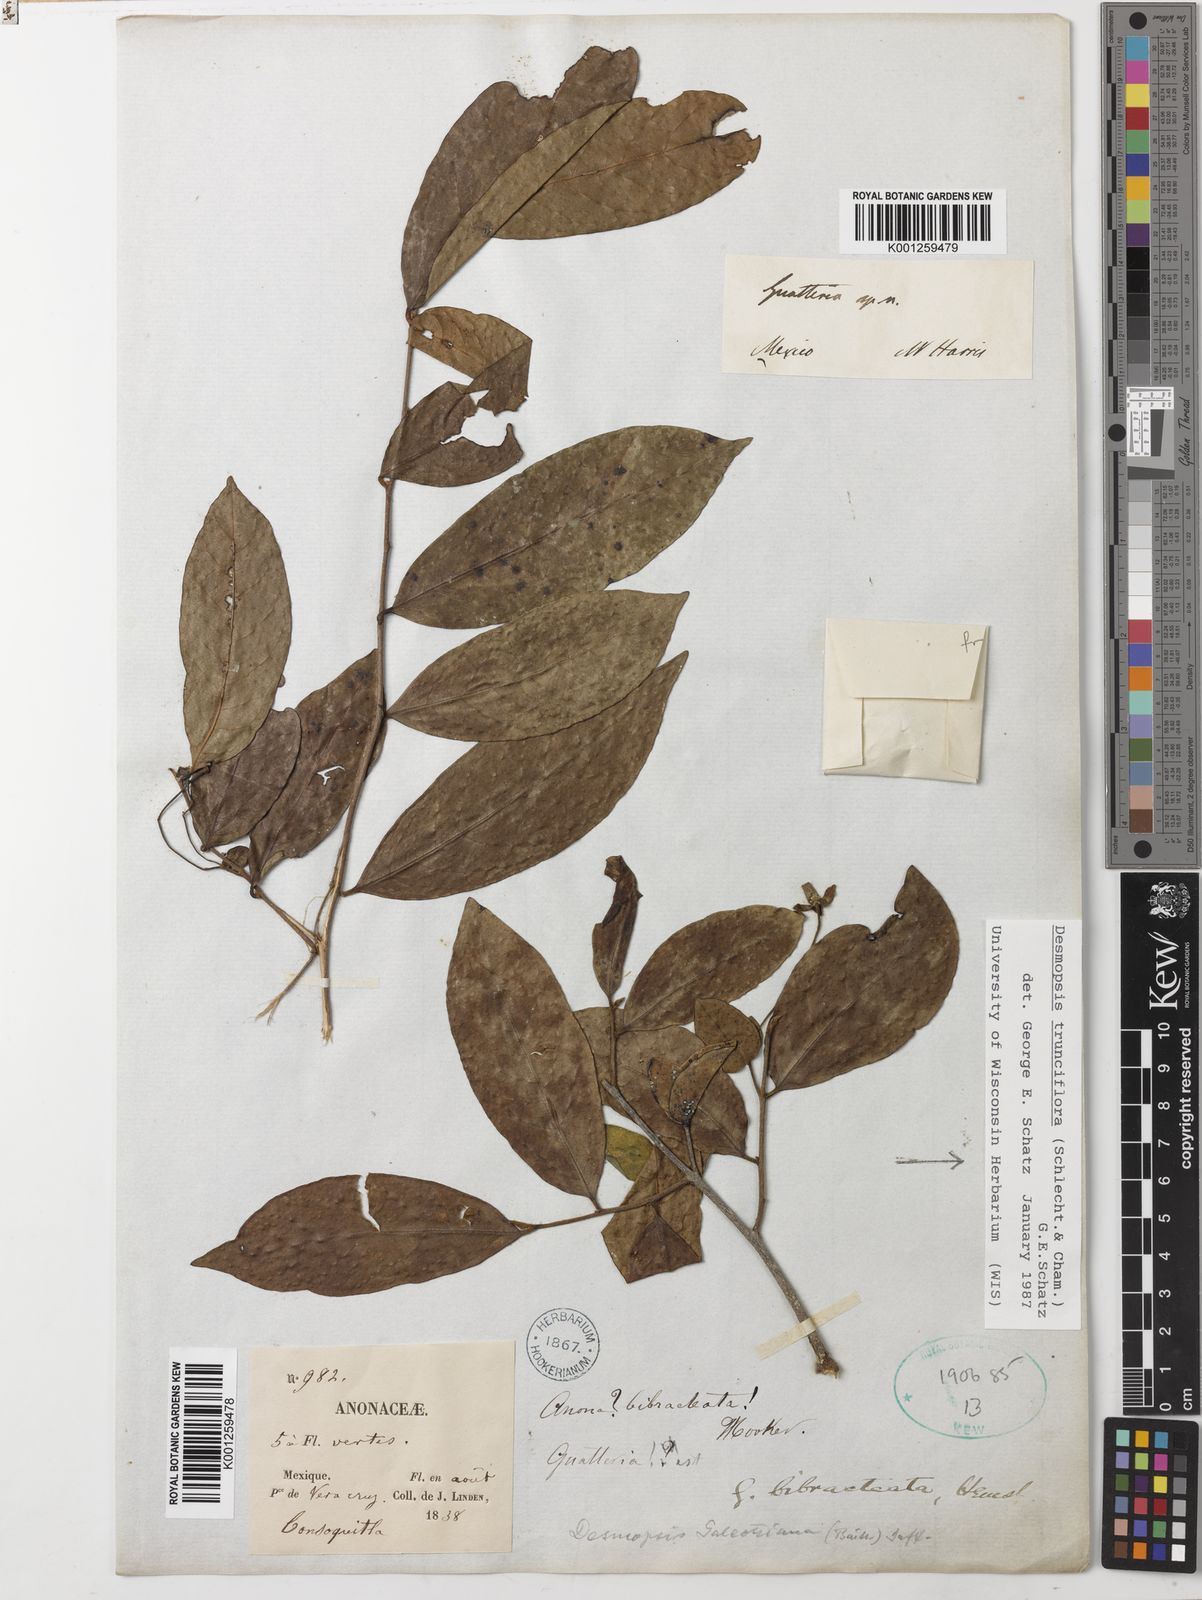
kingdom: Plantae
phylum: Tracheophyta
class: Magnoliopsida
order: Magnoliales
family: Annonaceae
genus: Desmopsis
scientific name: Desmopsis
